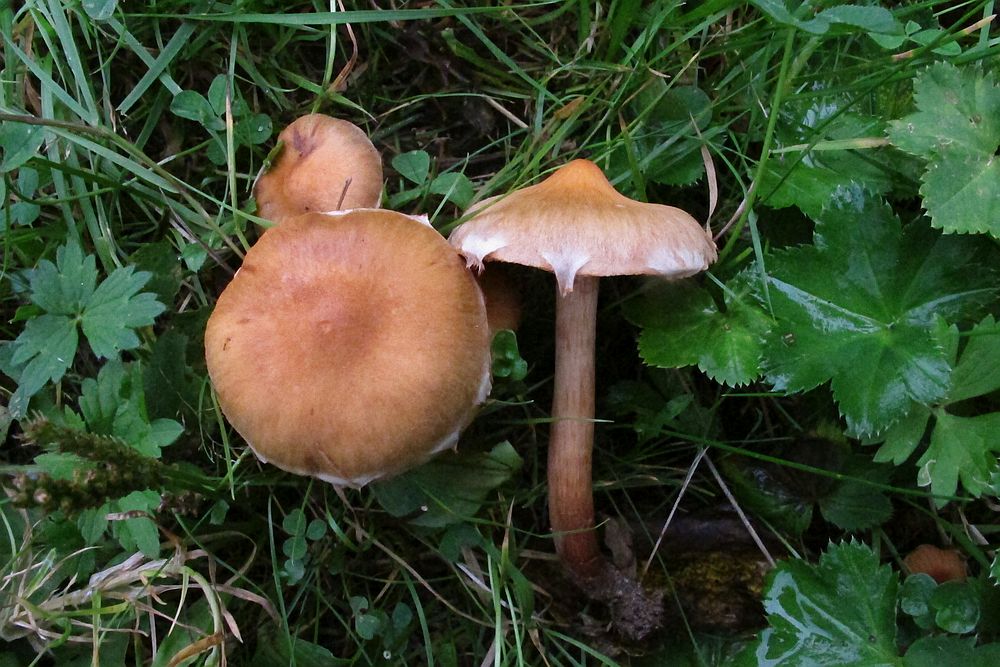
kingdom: Fungi
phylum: Basidiomycota
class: Agaricomycetes
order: Agaricales
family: Cortinariaceae
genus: Cortinarius
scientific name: Cortinarius hinnuleus
